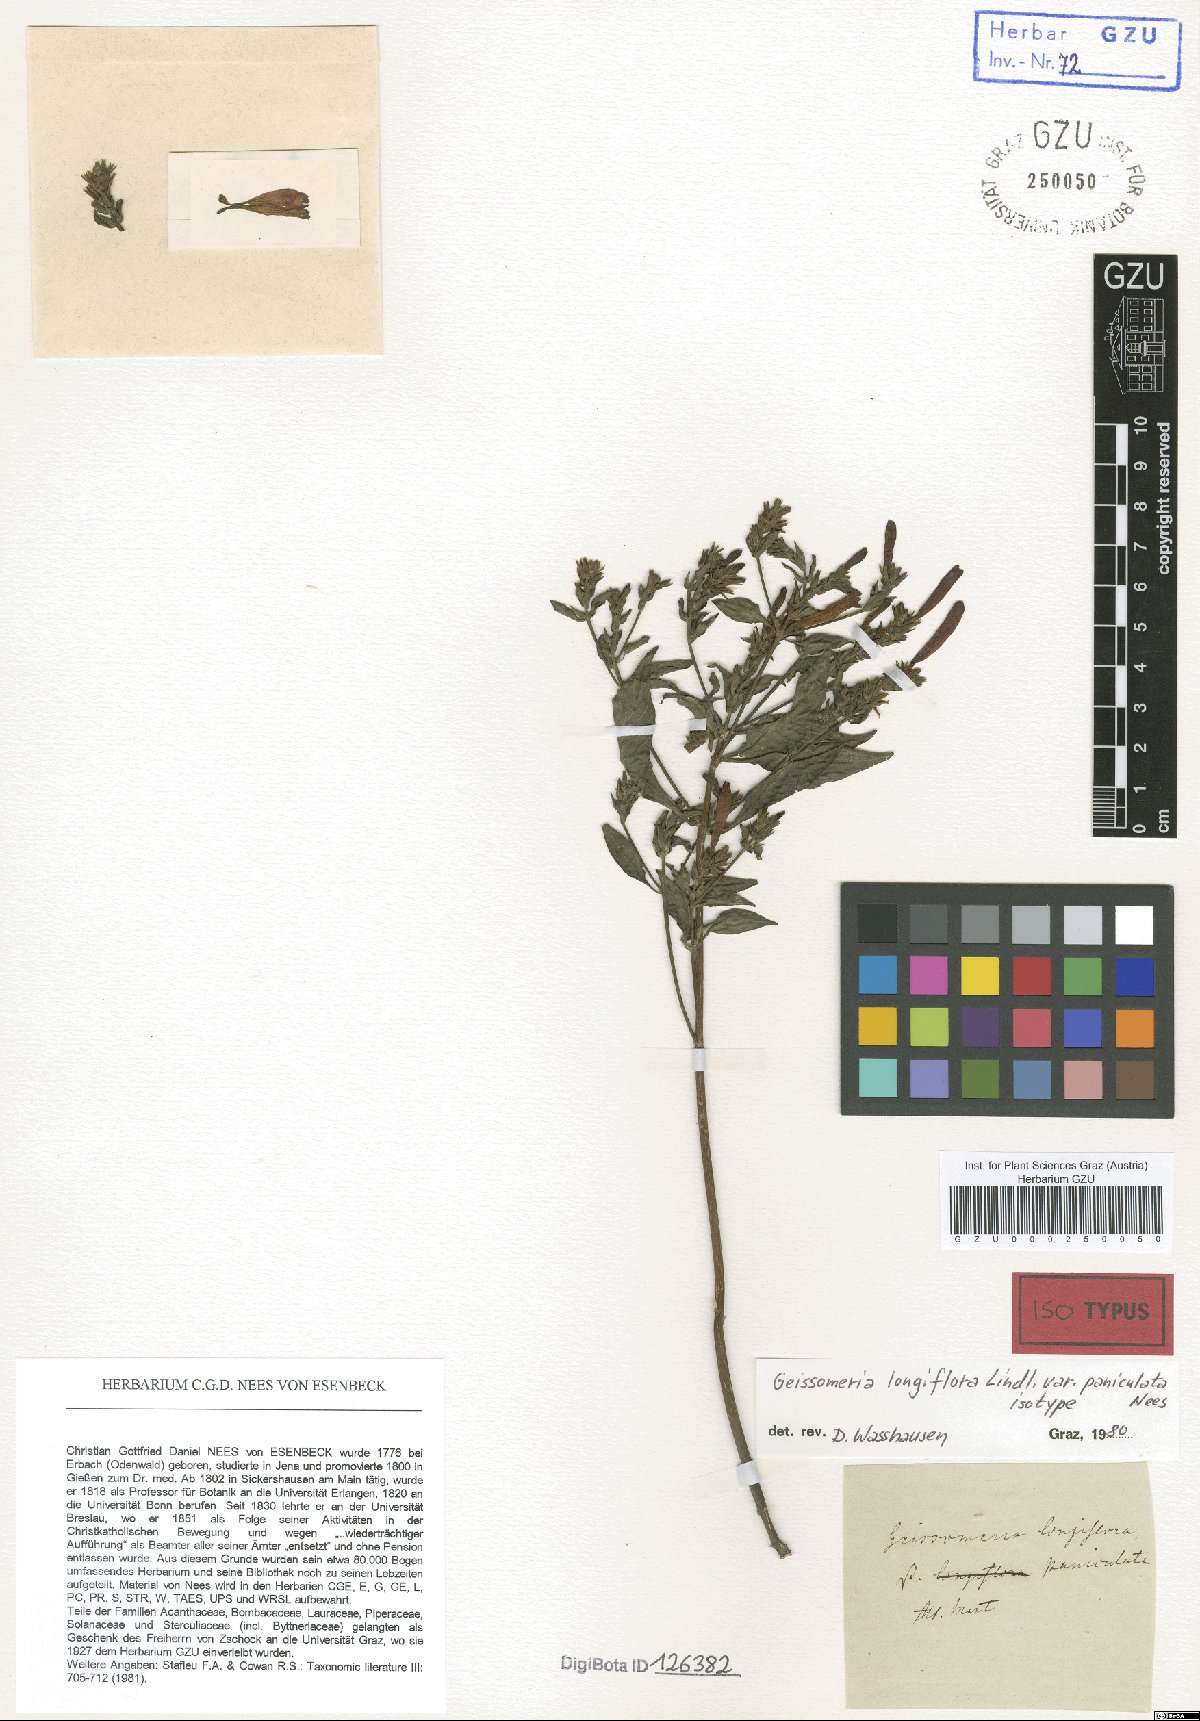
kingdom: Plantae
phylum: Tracheophyta
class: Magnoliopsida
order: Lamiales
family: Acanthaceae
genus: Aphelandra
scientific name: Aphelandra longiflora
